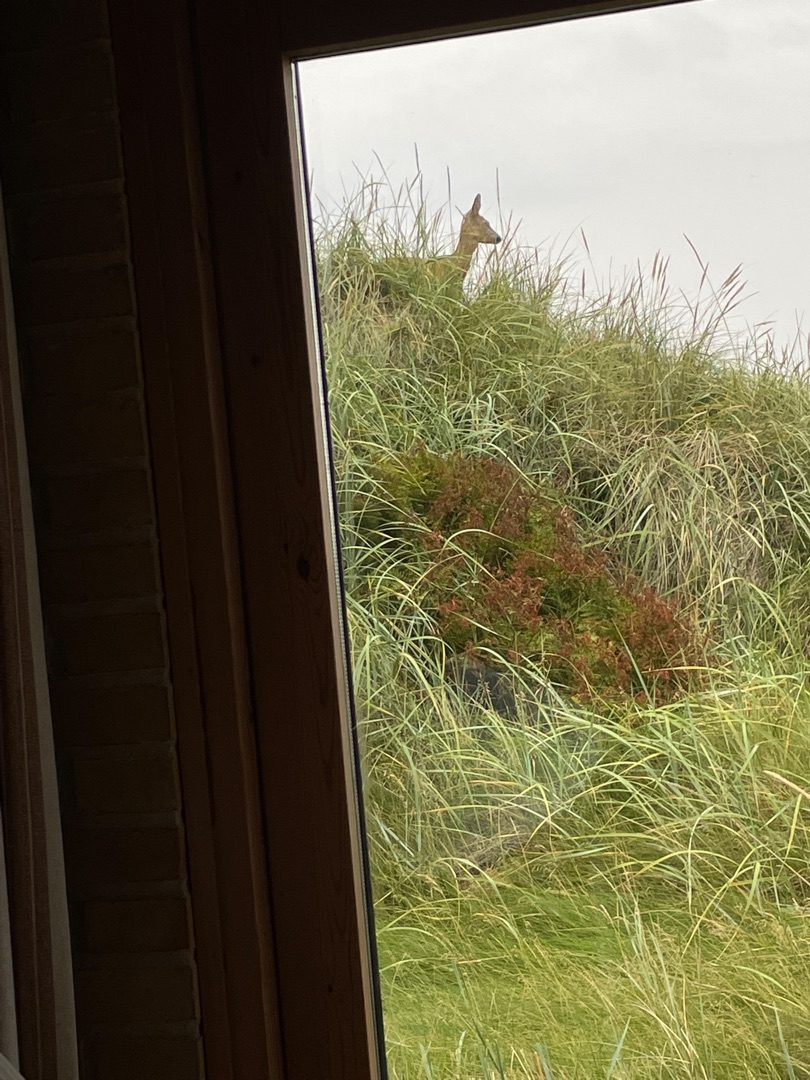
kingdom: Animalia
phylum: Chordata
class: Mammalia
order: Artiodactyla
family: Cervidae
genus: Capreolus
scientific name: Capreolus capreolus
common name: Rådyr
